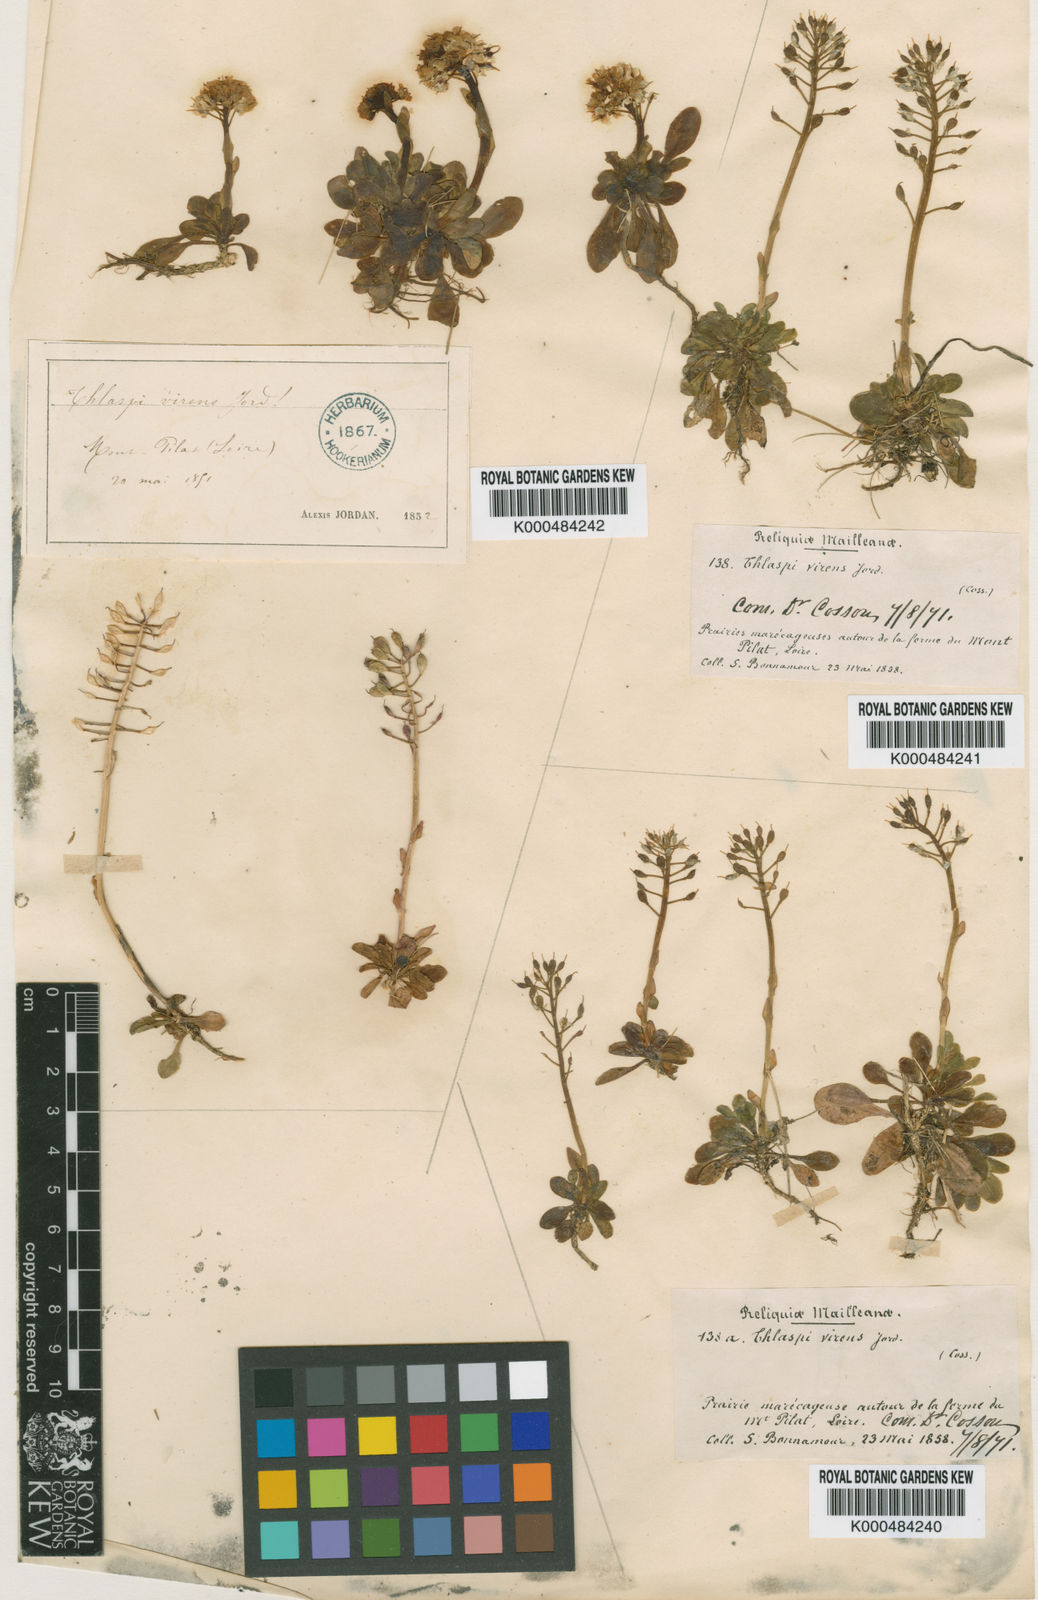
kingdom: Plantae
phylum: Tracheophyta
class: Magnoliopsida
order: Brassicales
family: Brassicaceae
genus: Thlaspi
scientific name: Thlaspi
